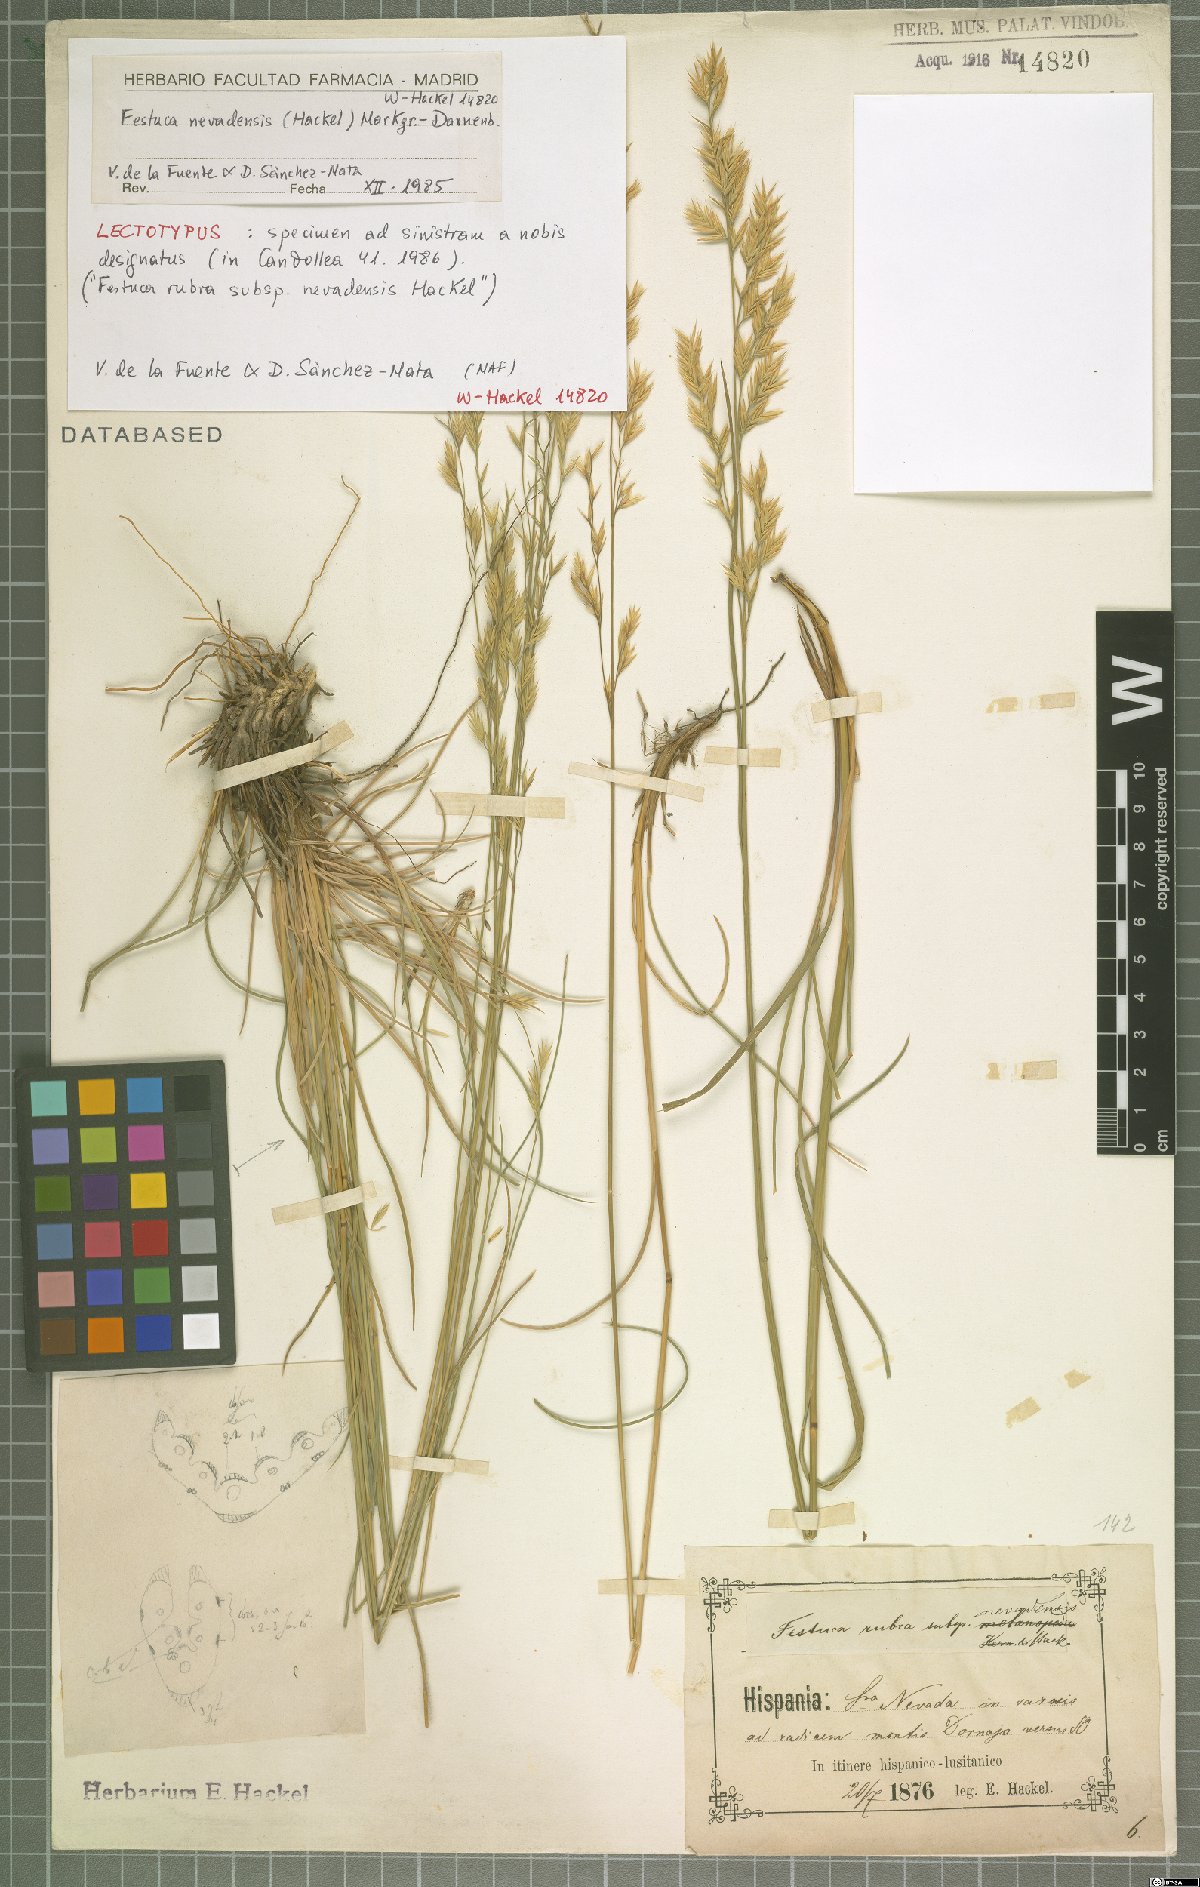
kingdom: Plantae
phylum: Tracheophyta
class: Liliopsida
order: Poales
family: Poaceae
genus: Festuca
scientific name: Festuca nevadensis
